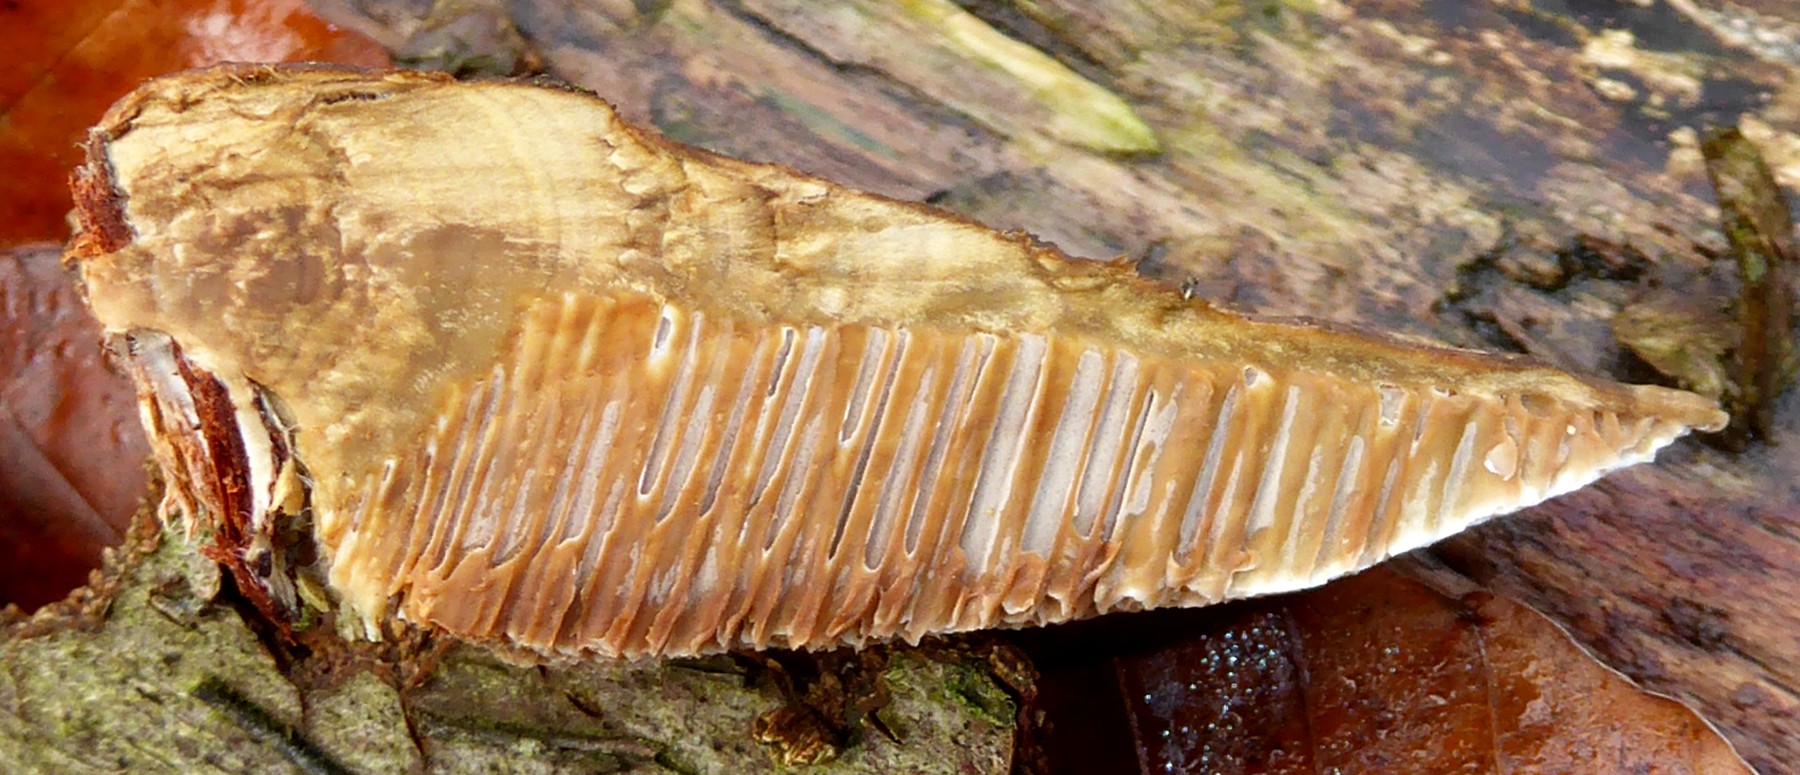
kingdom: Fungi
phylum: Basidiomycota
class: Agaricomycetes
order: Polyporales
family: Polyporaceae
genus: Daedaleopsis
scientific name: Daedaleopsis confragosa
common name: rødmende læderporesvamp
